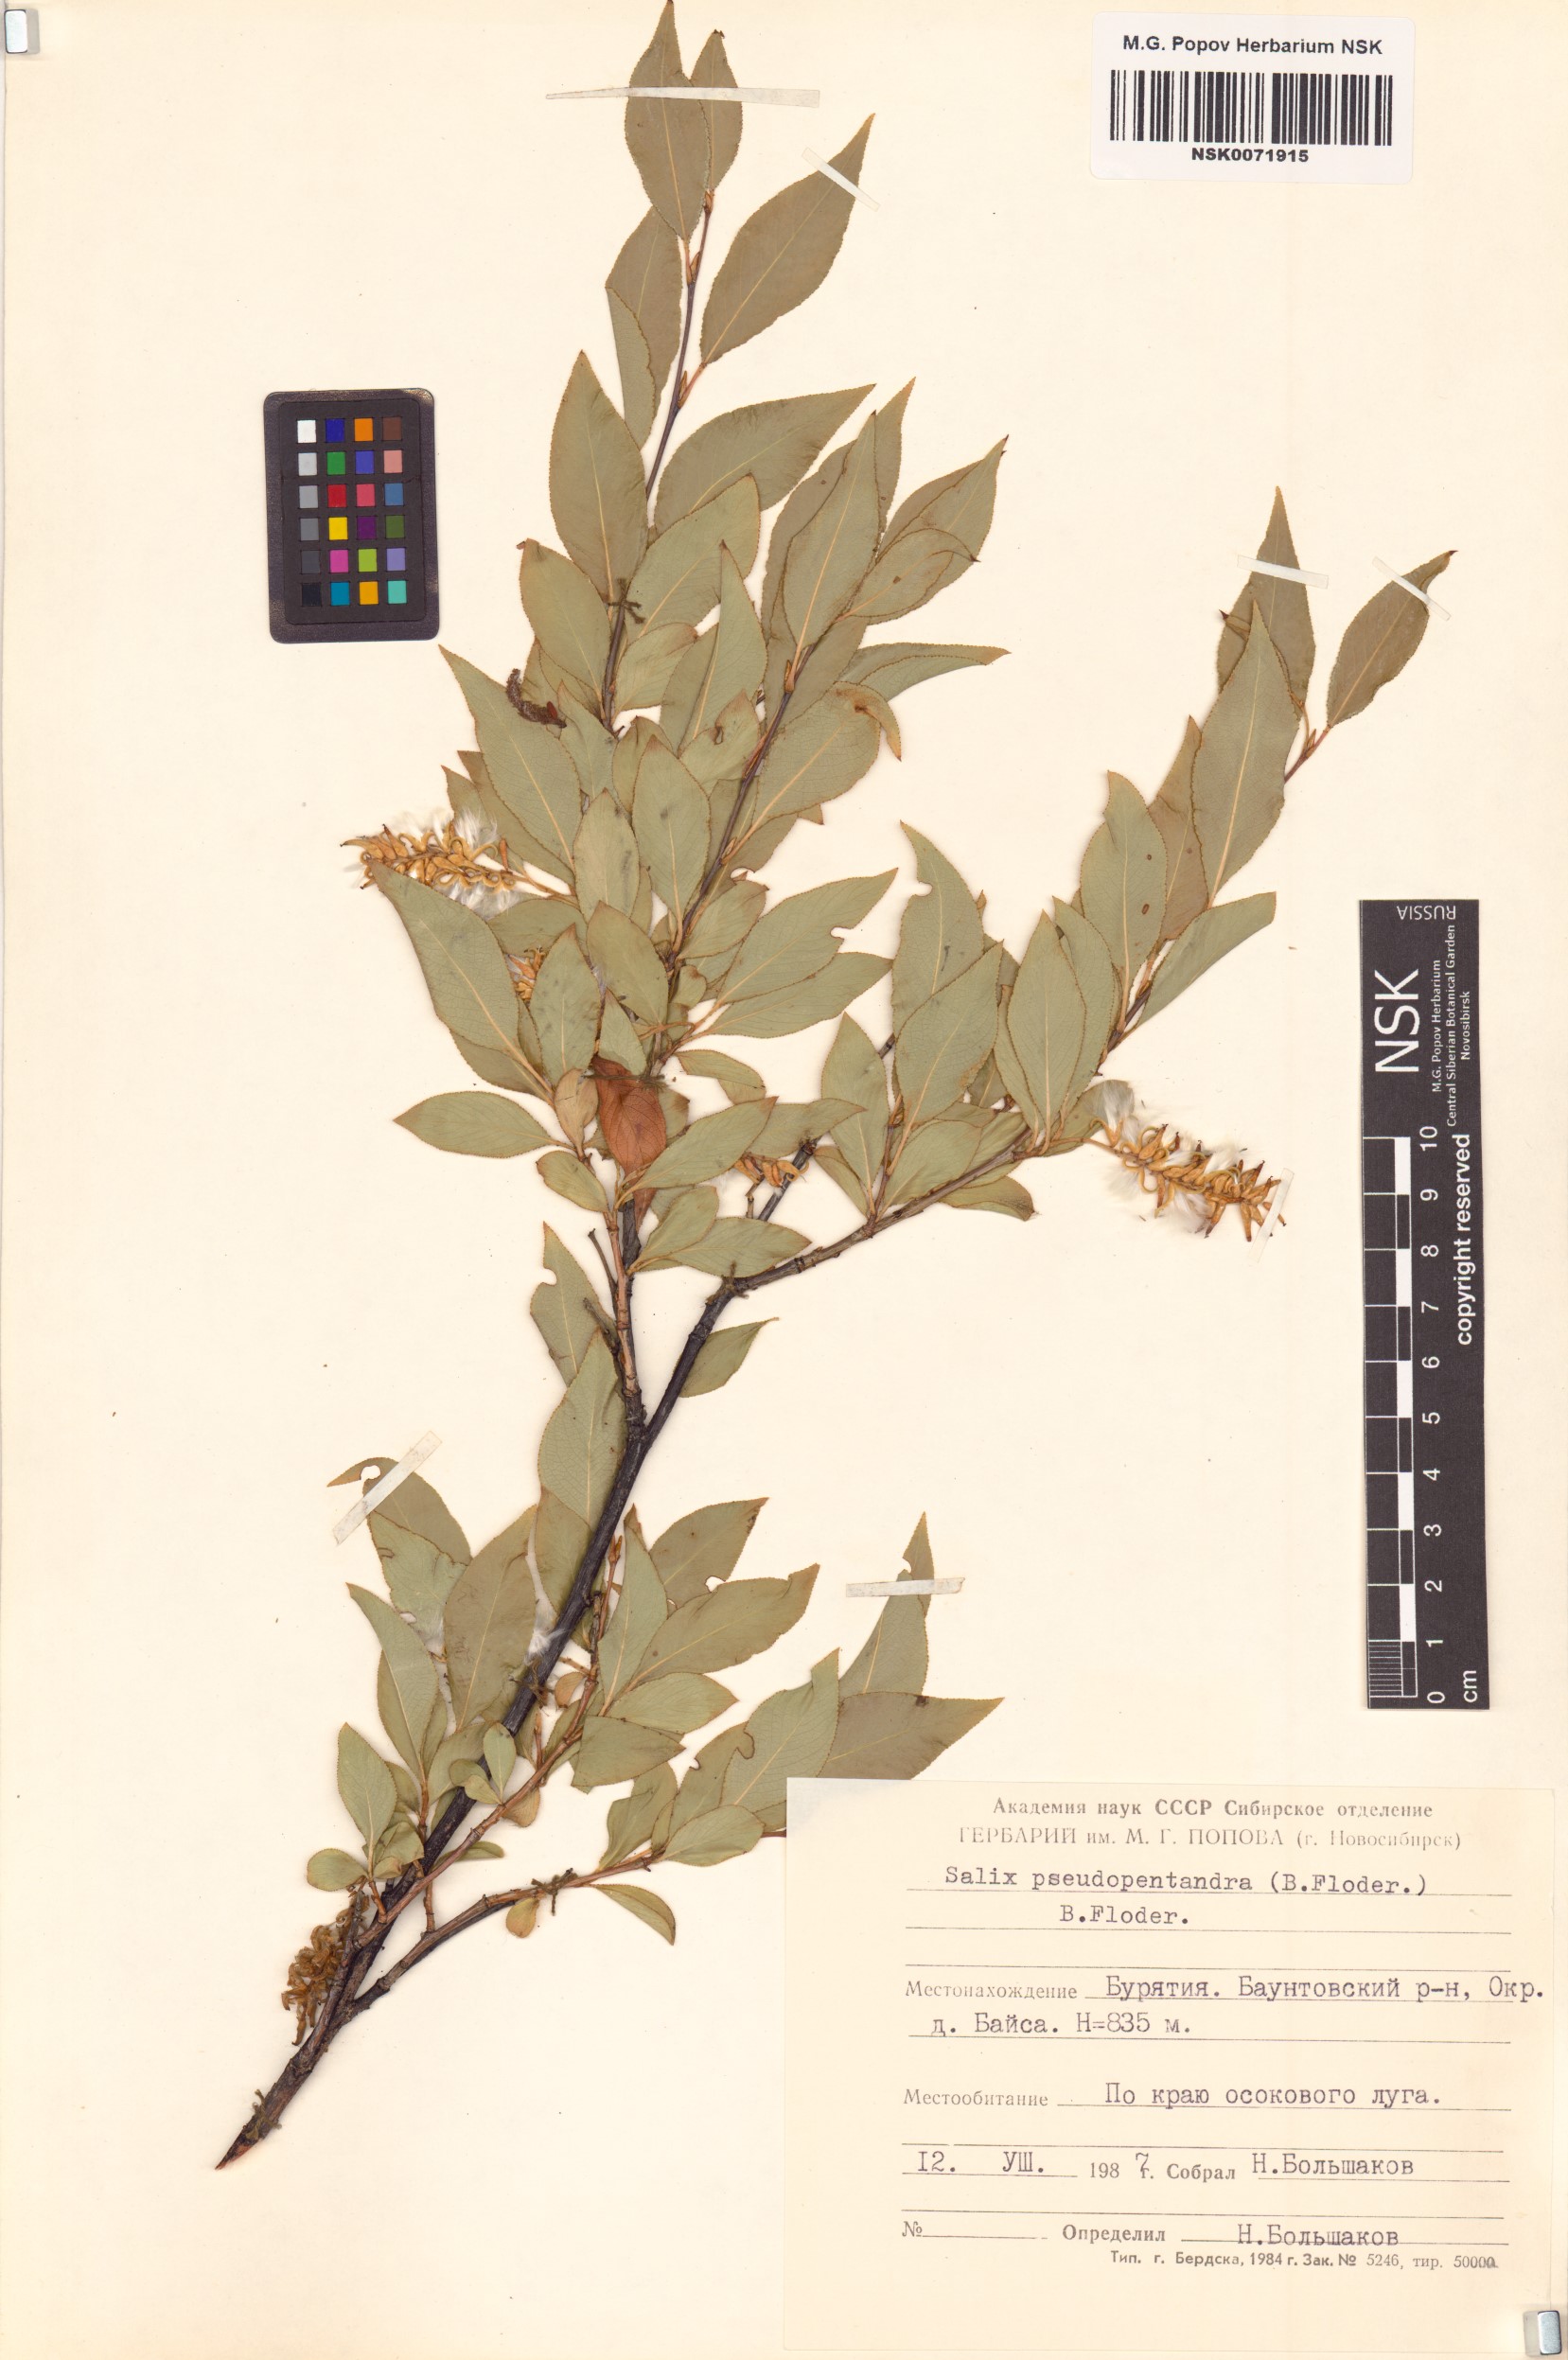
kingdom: Plantae
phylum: Tracheophyta
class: Magnoliopsida
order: Malpighiales
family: Salicaceae
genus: Salix
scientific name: Salix pseudopentandra
